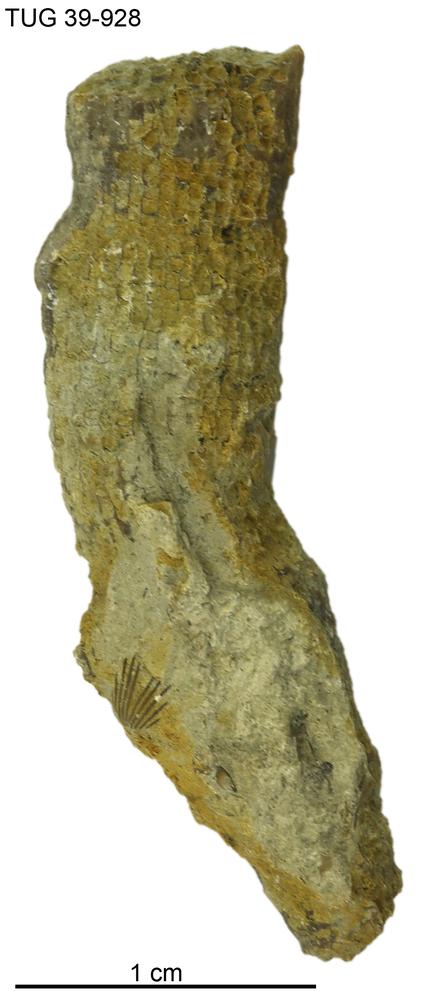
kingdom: Animalia
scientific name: Animalia
